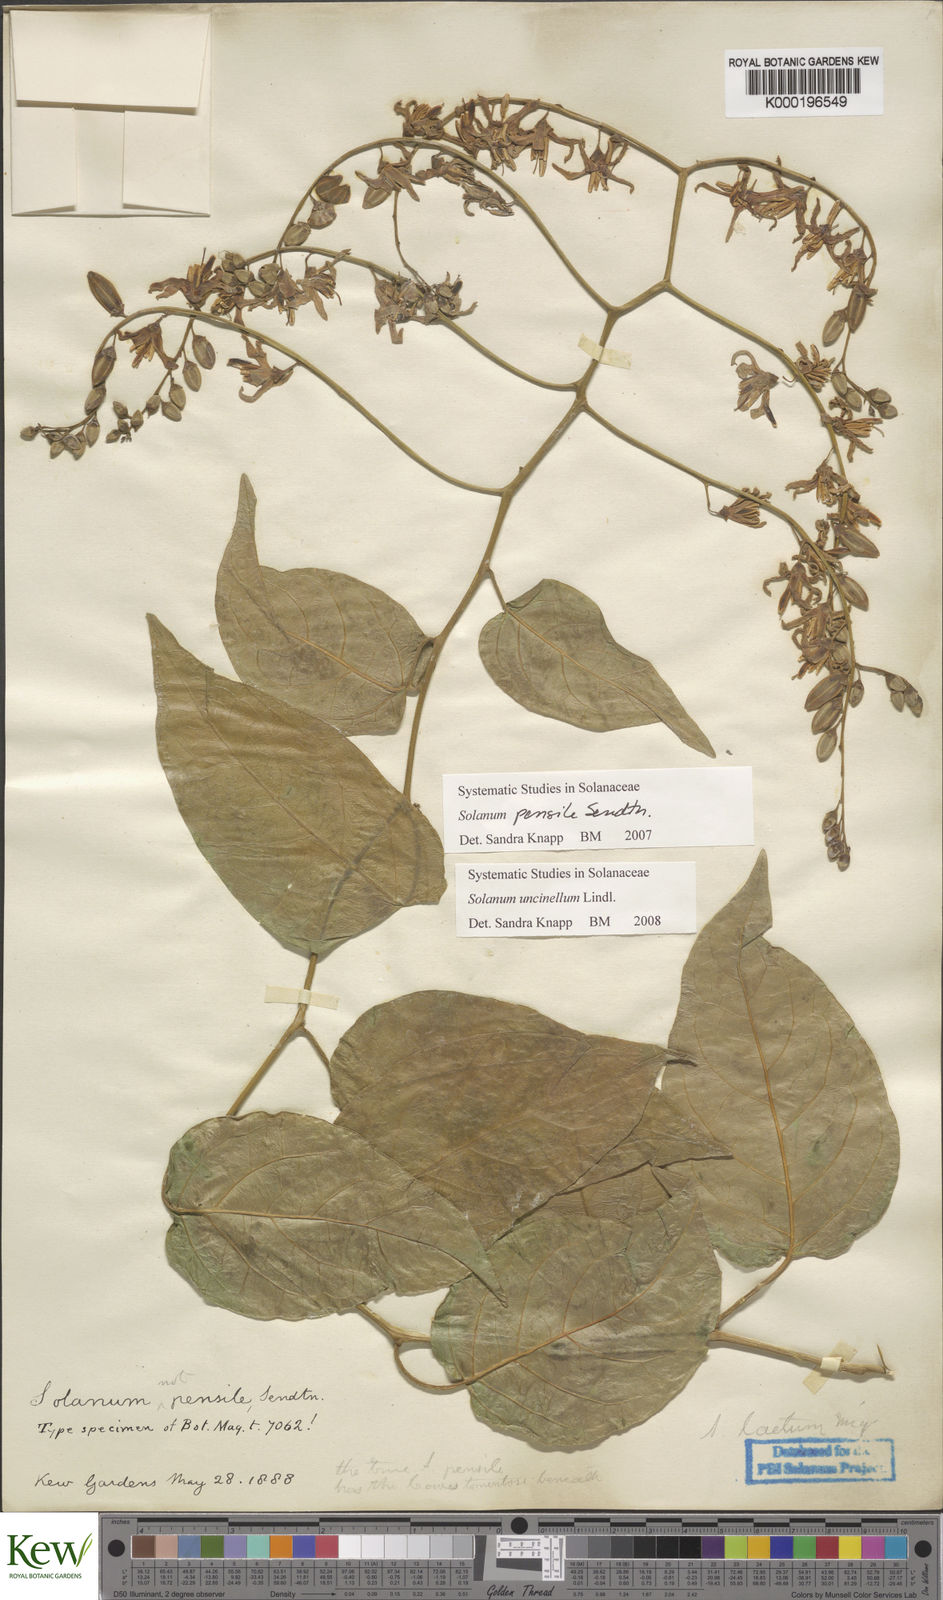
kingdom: Plantae
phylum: Tracheophyta
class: Magnoliopsida
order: Solanales
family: Solanaceae
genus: Solanum
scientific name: Solanum uncinellum
